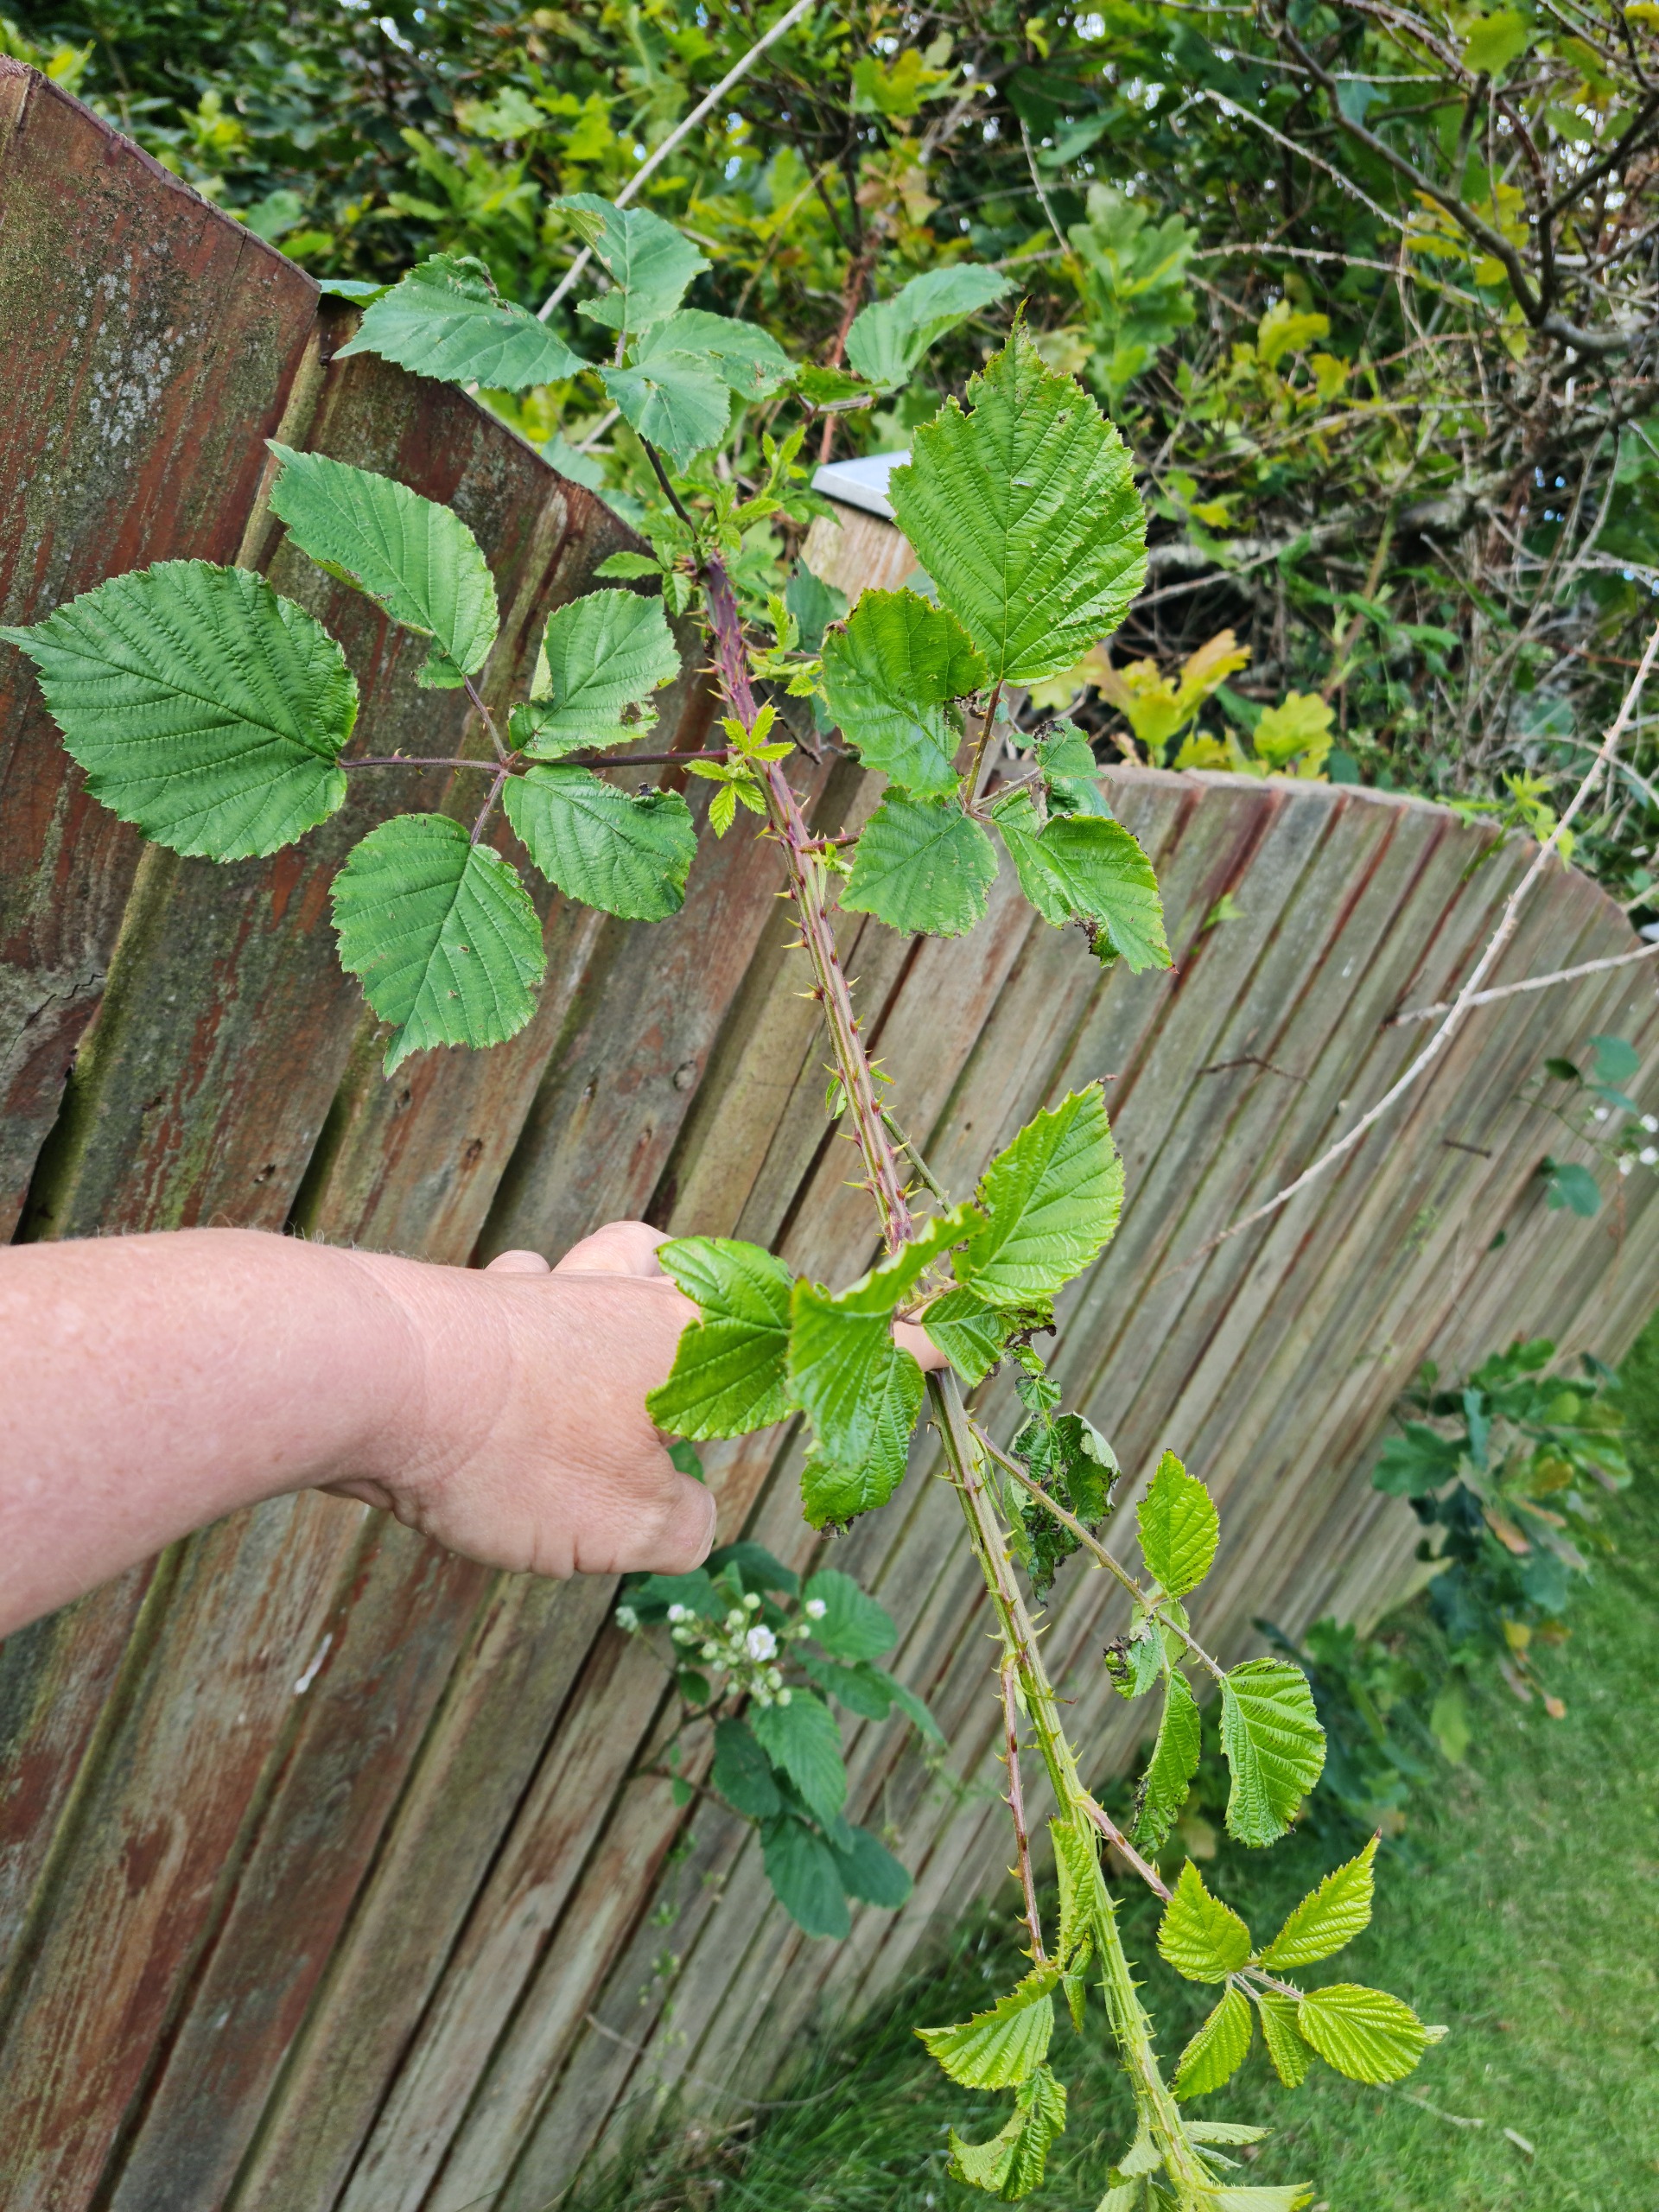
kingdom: Plantae
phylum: Tracheophyta
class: Magnoliopsida
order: Rosales
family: Rosaceae
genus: Rubus
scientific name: Rubus armeniacus
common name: Armensk brombær
